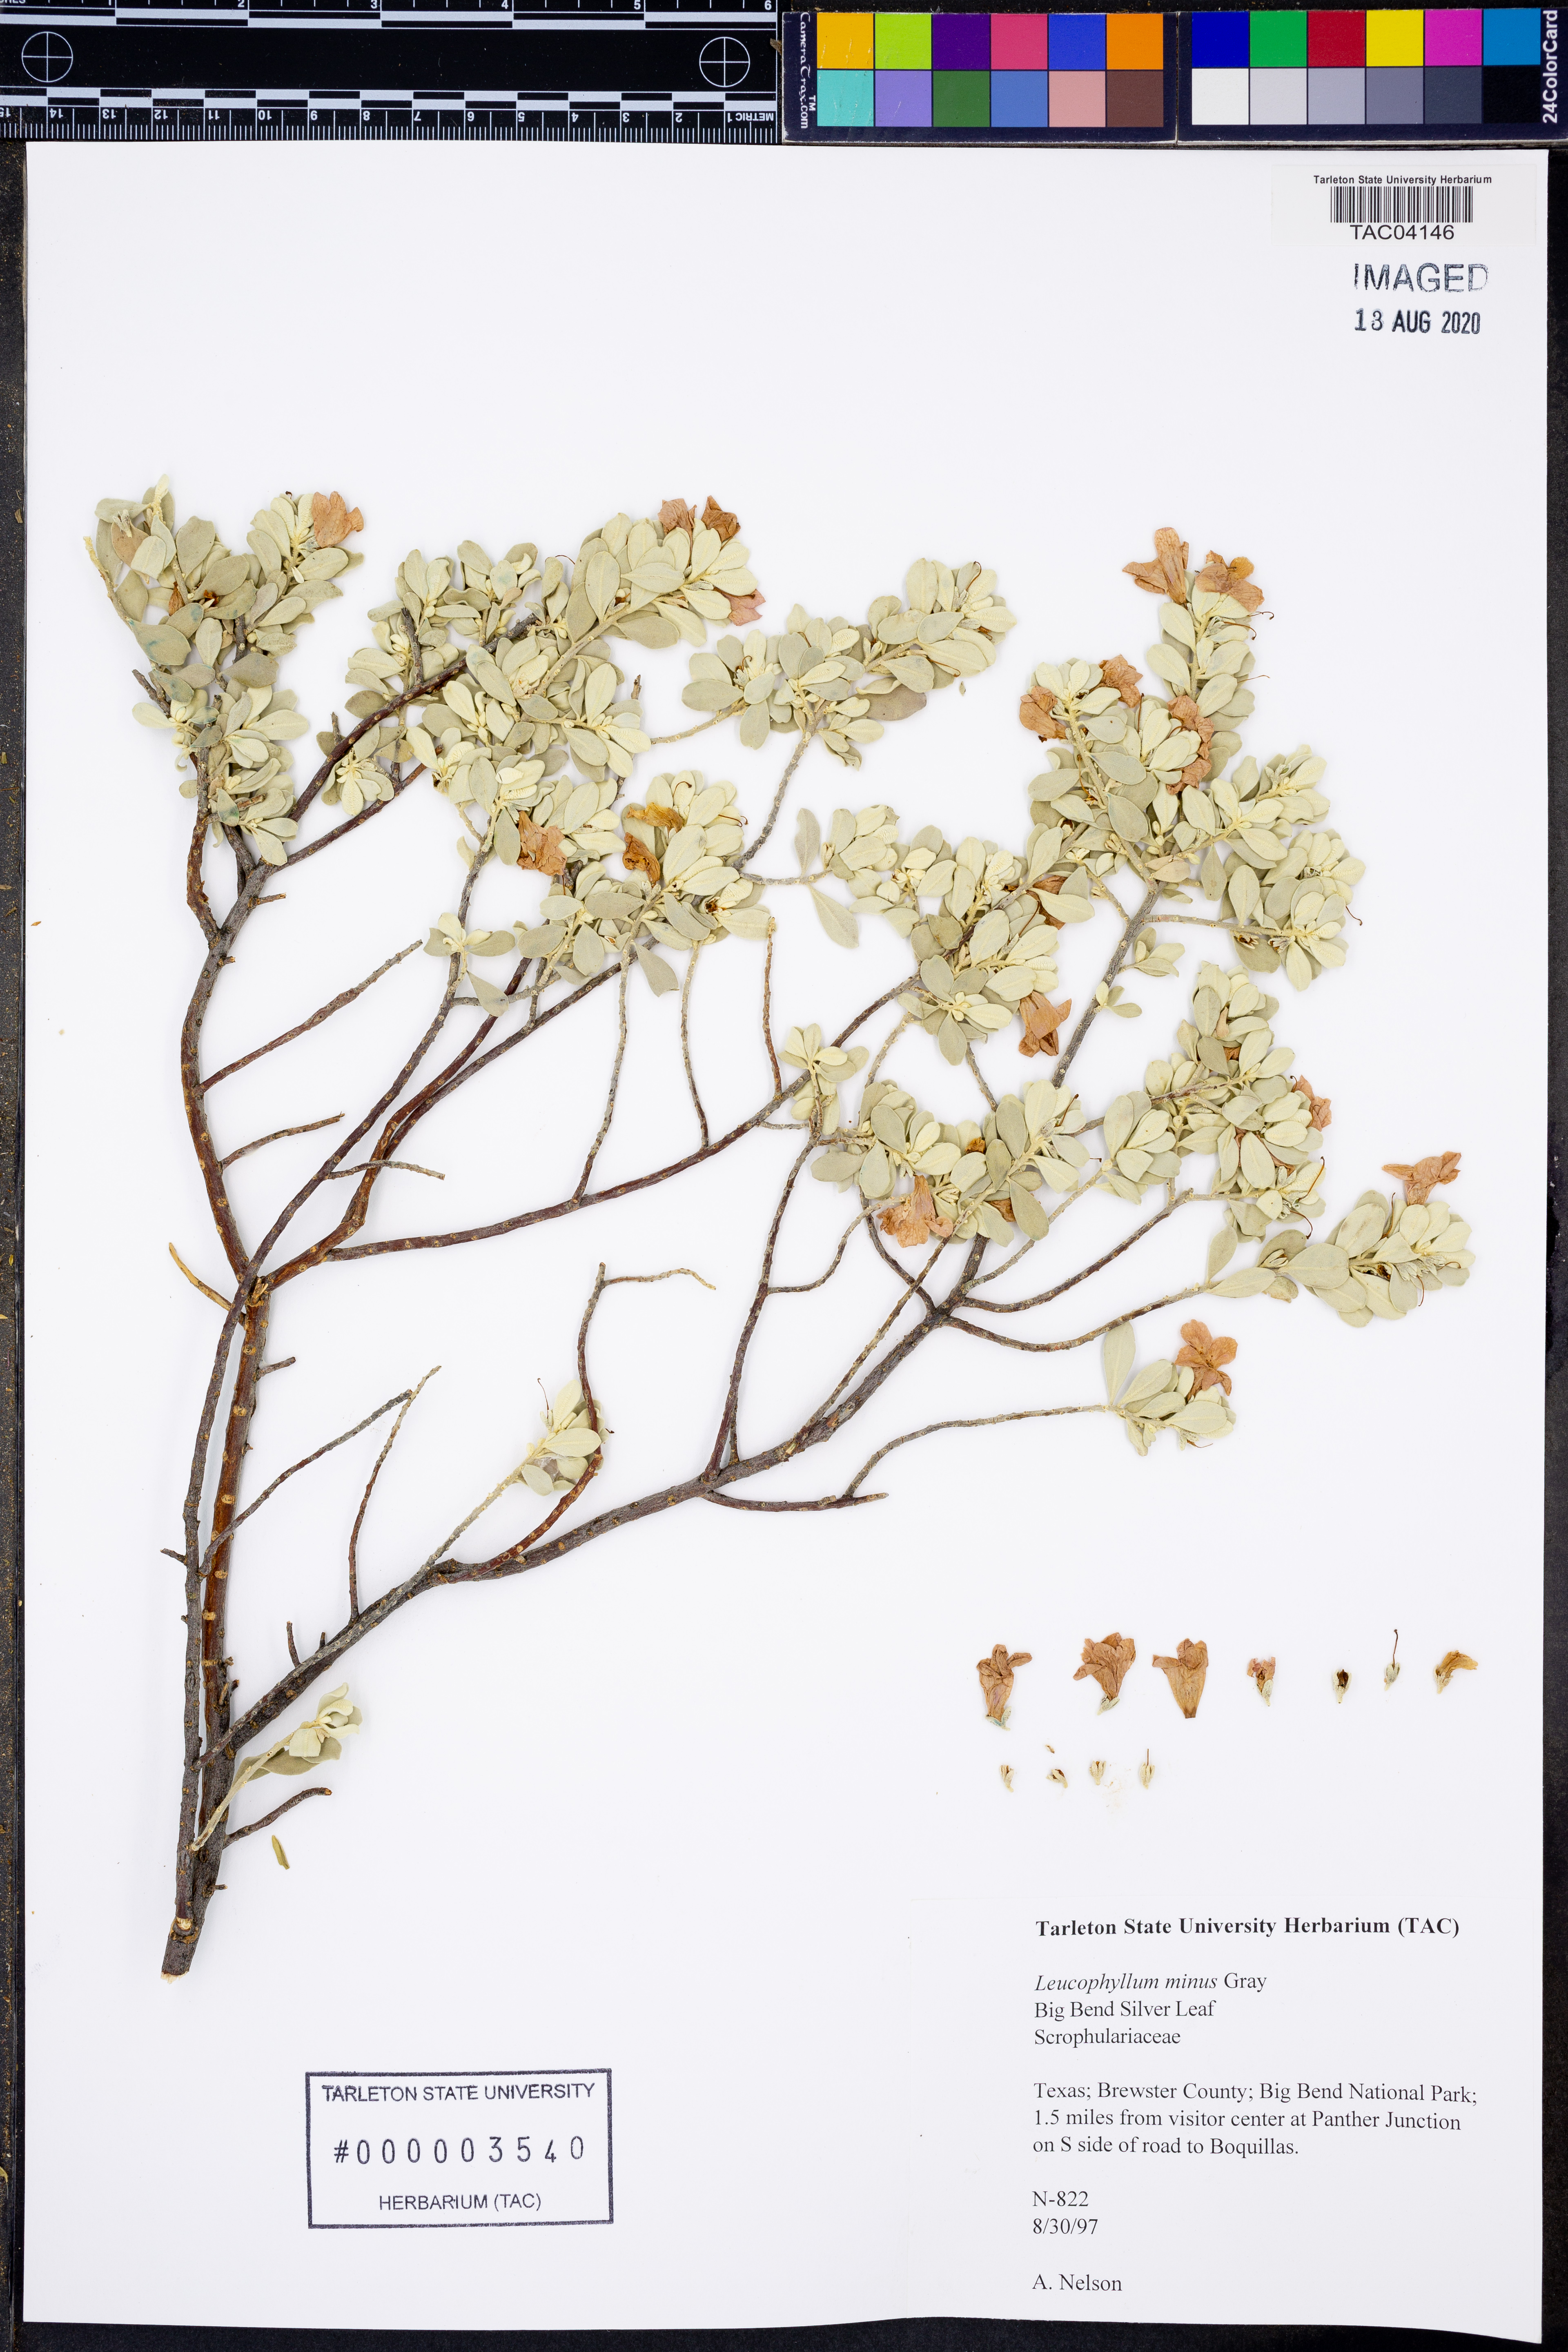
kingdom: Plantae
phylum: Tracheophyta
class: Magnoliopsida
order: Lamiales
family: Scrophulariaceae
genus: Leucophyllum
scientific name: Leucophyllum minus
